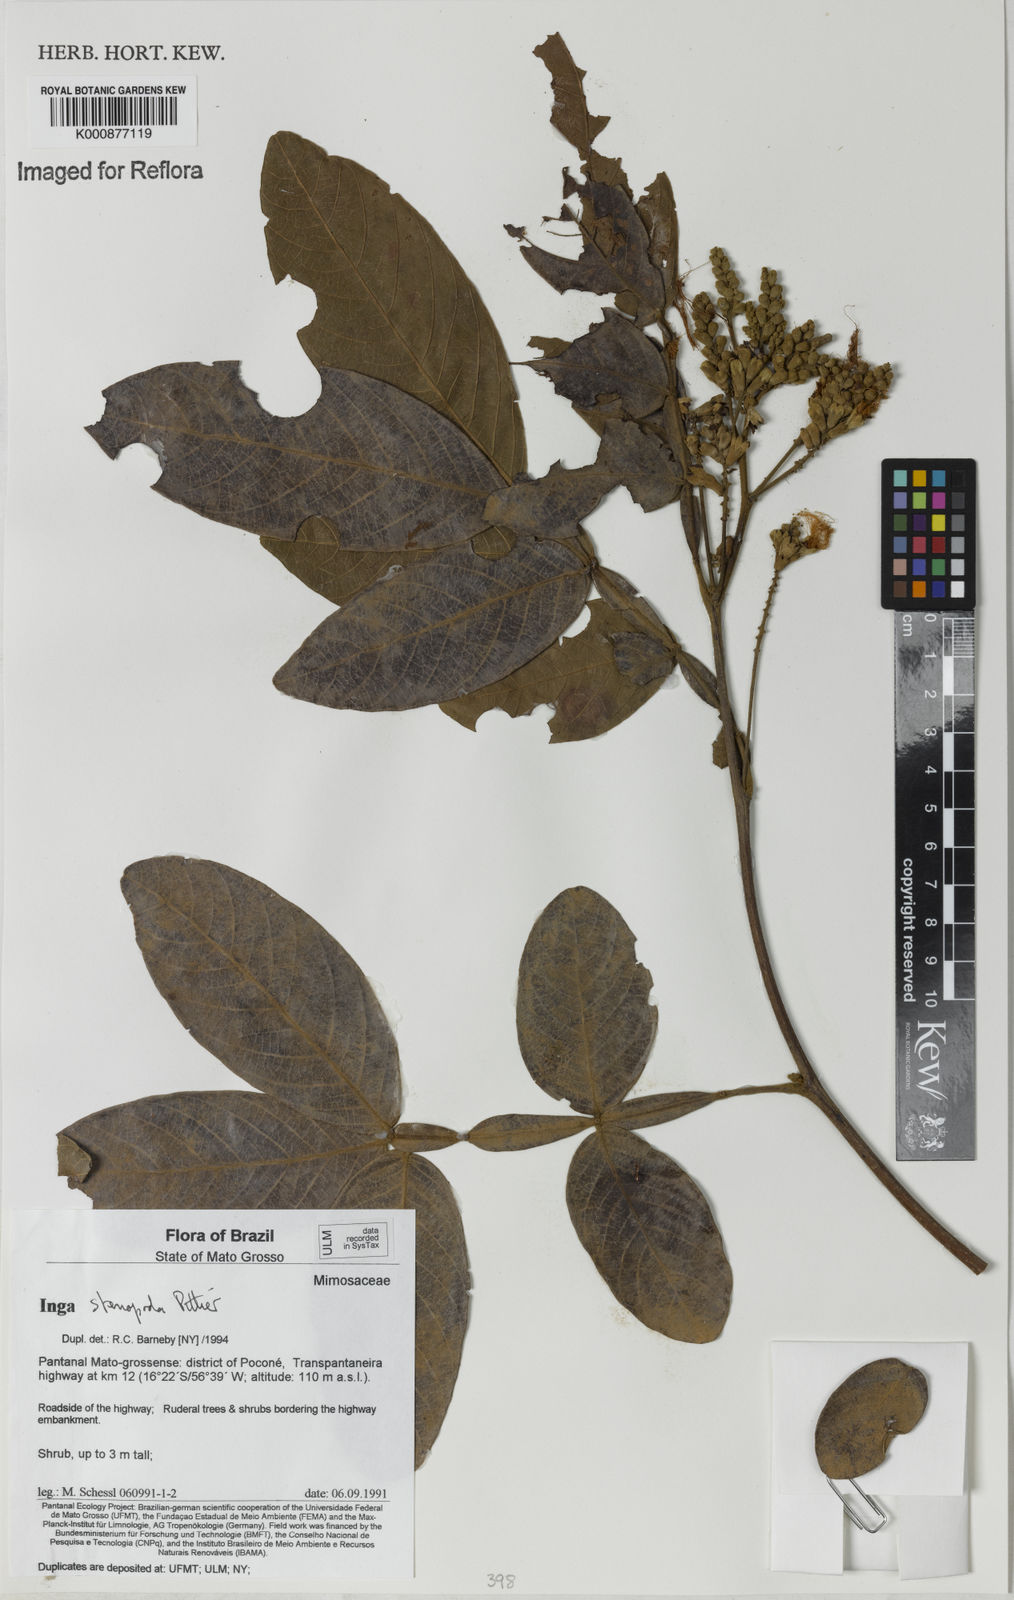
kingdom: Plantae
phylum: Tracheophyta
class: Magnoliopsida
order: Fabales
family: Fabaceae
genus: Inga
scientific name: Inga stenopoda
